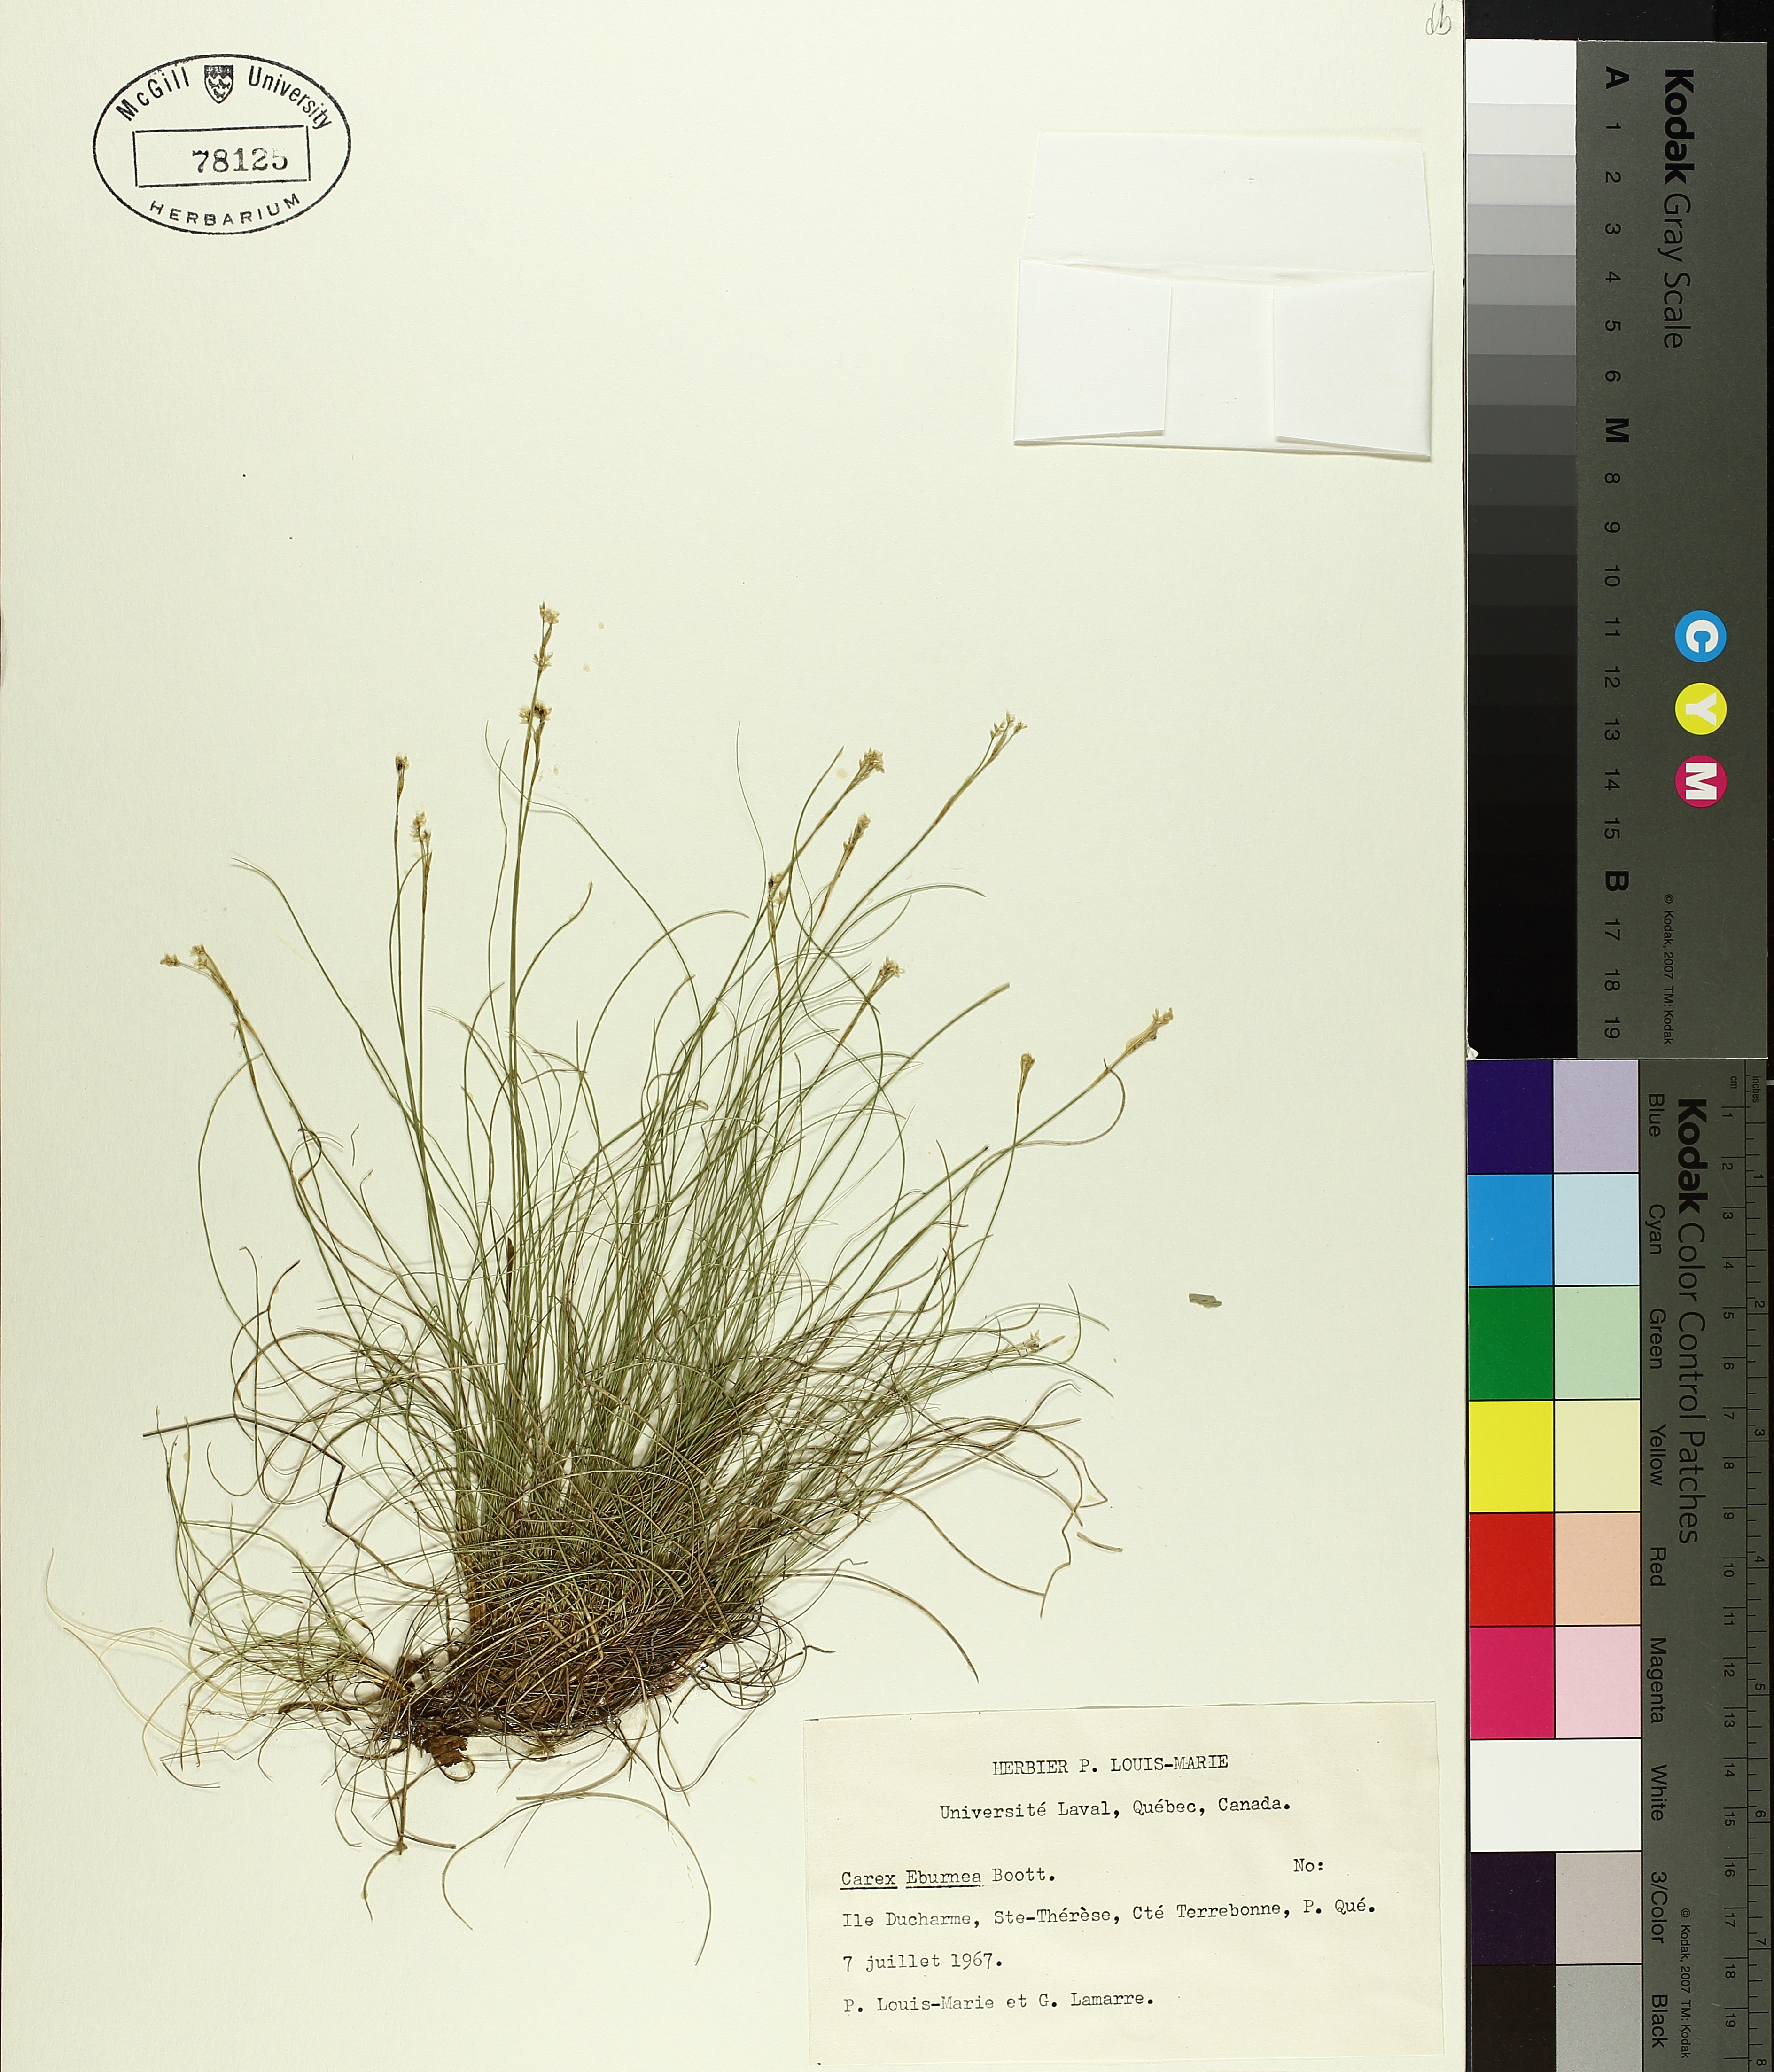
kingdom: Plantae
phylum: Tracheophyta
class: Liliopsida
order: Poales
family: Cyperaceae
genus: Carex
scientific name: Carex eburnea
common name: Bristle-leaved sedge
